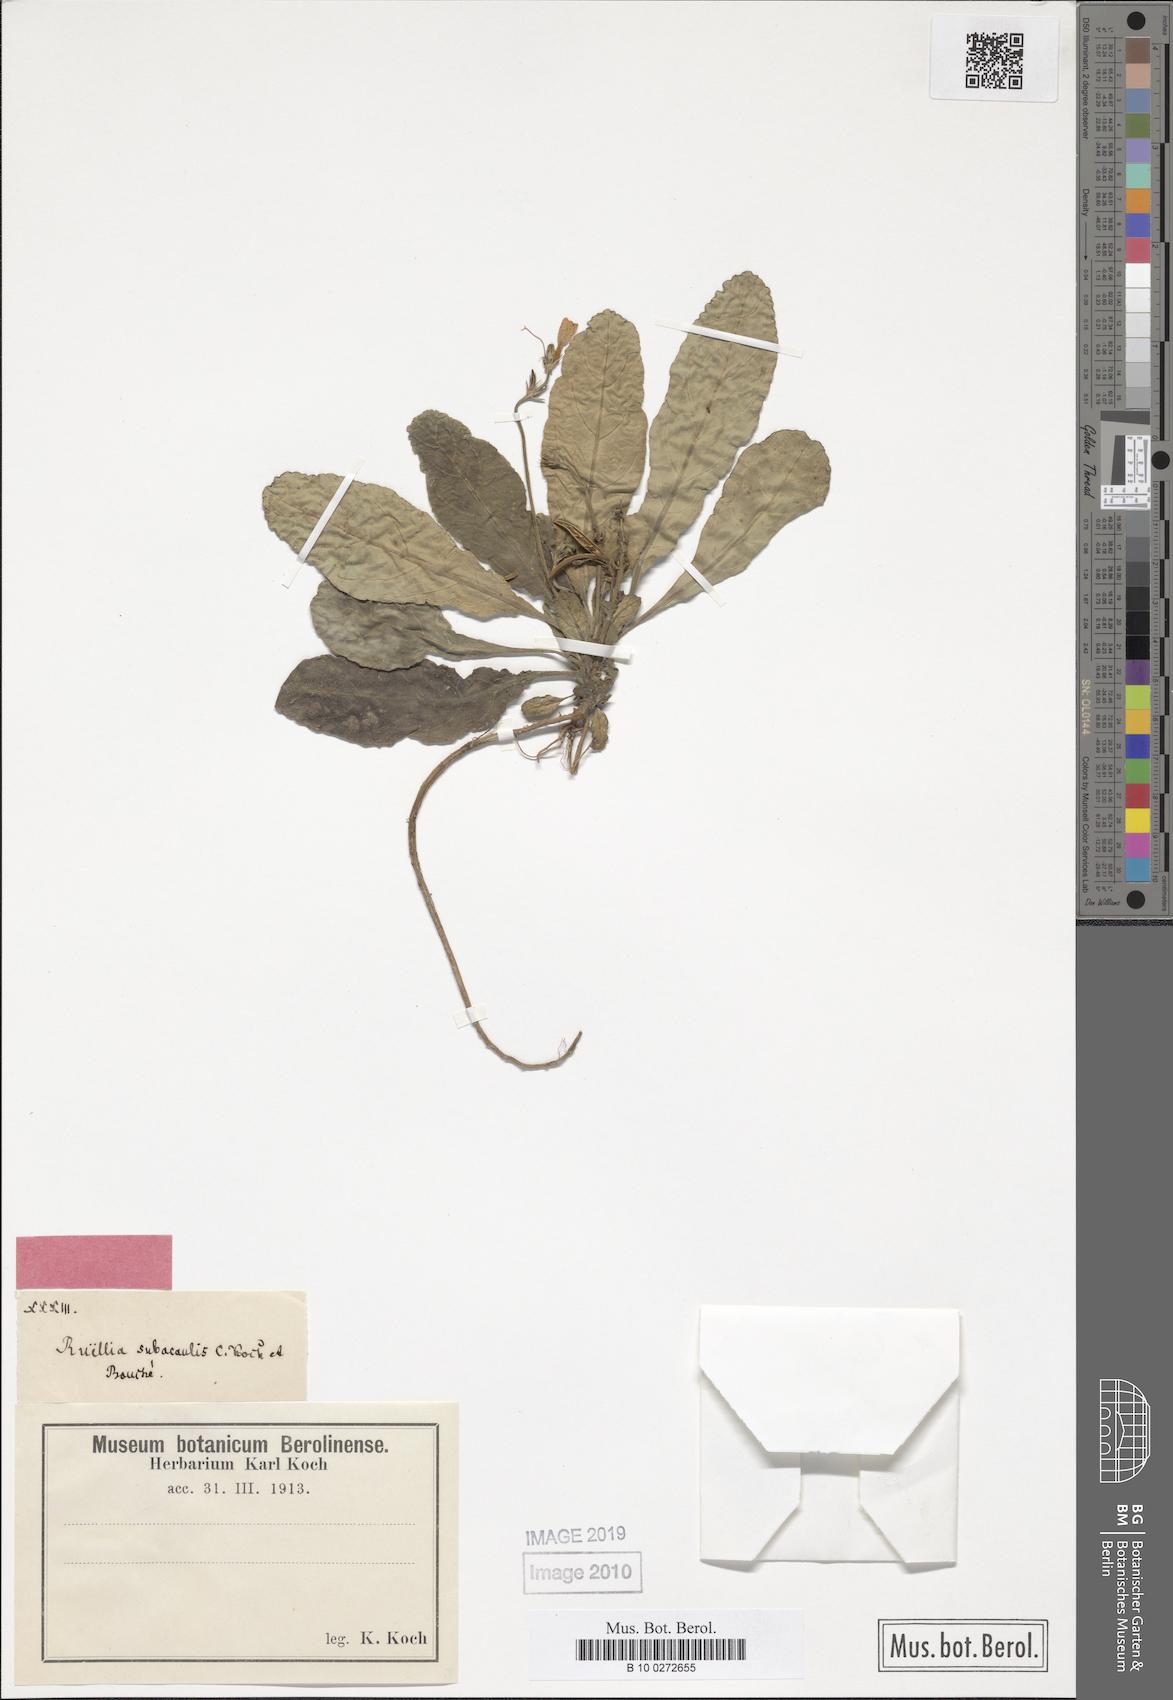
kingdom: Plantae
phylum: Tracheophyta
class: Magnoliopsida
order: Lamiales
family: Acanthaceae
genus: Ruellia
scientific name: Ruellia geminiflora
